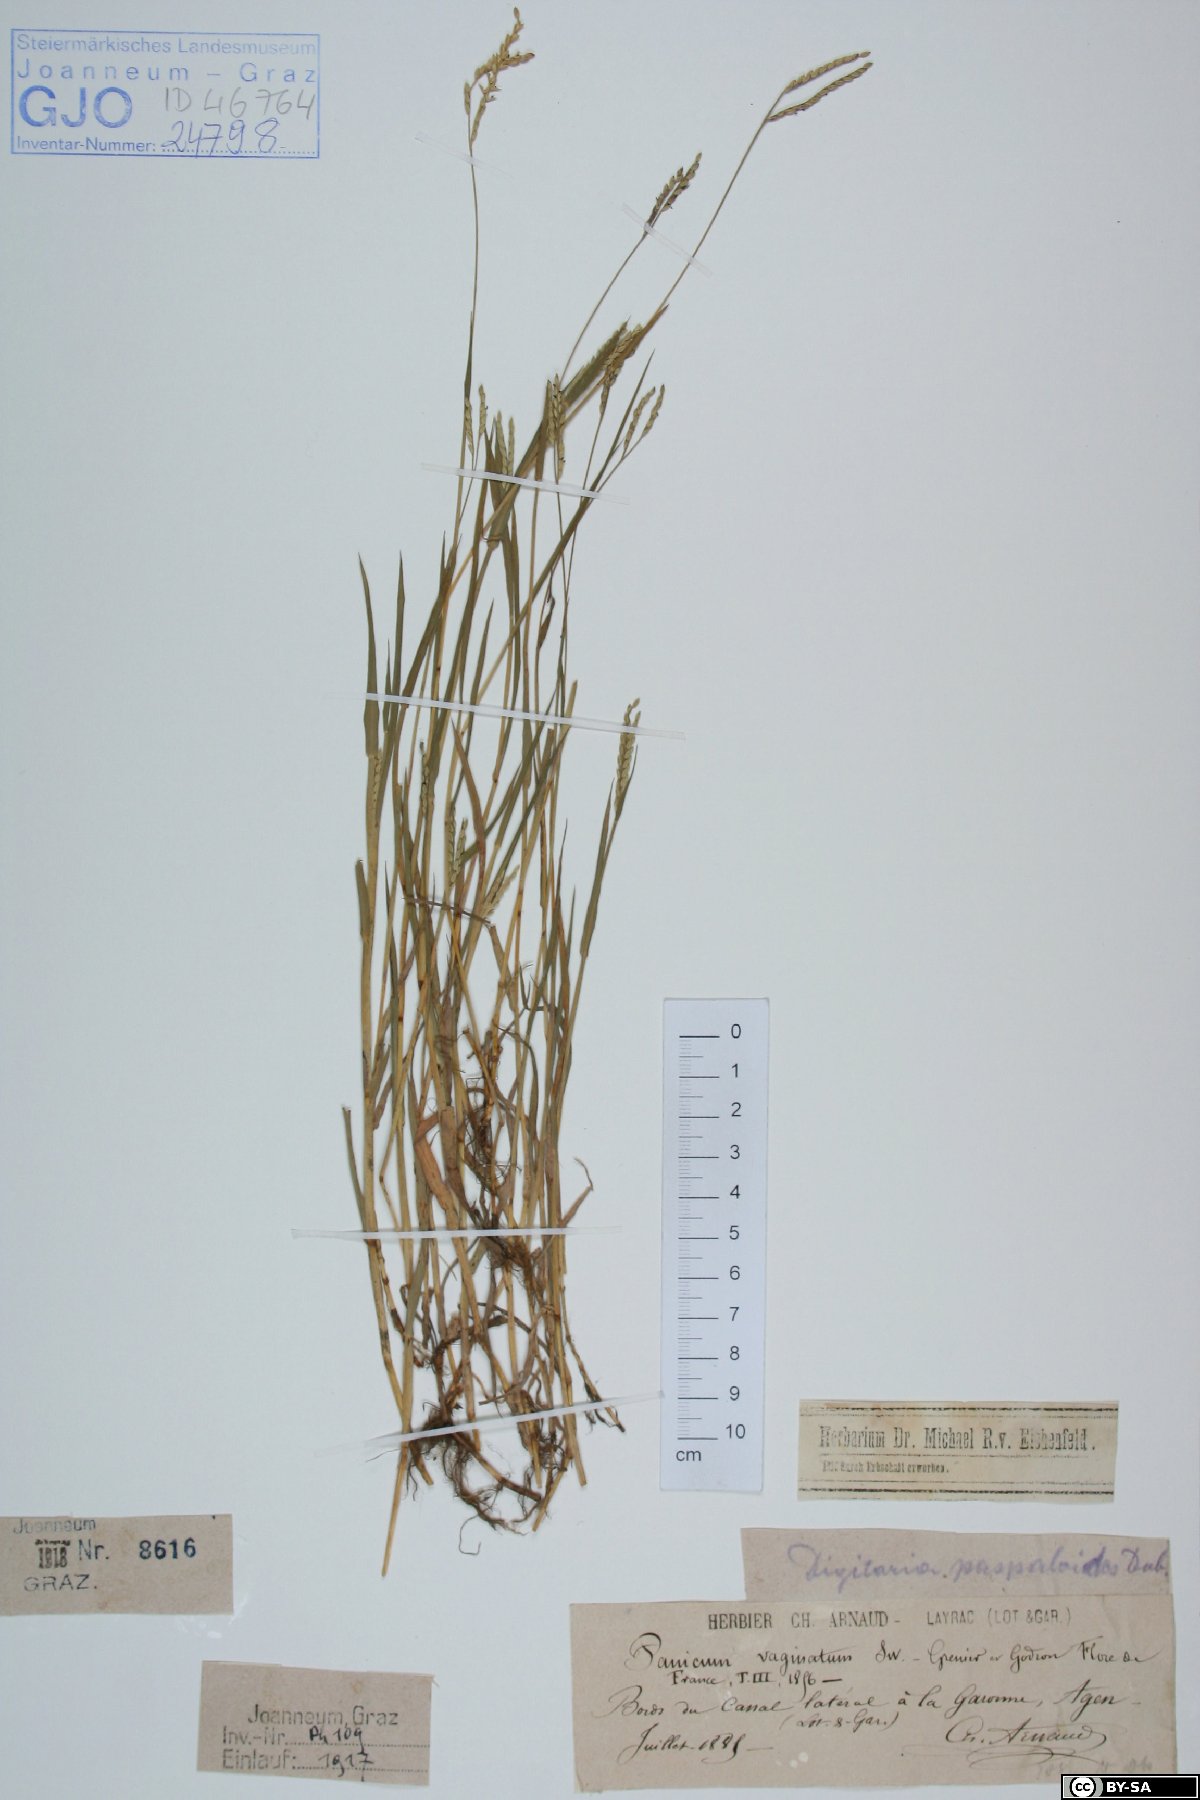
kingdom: Plantae
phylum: Tracheophyta
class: Liliopsida
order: Poales
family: Poaceae
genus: Paspalum
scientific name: Paspalum vaginatum
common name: Seashore paspalum
